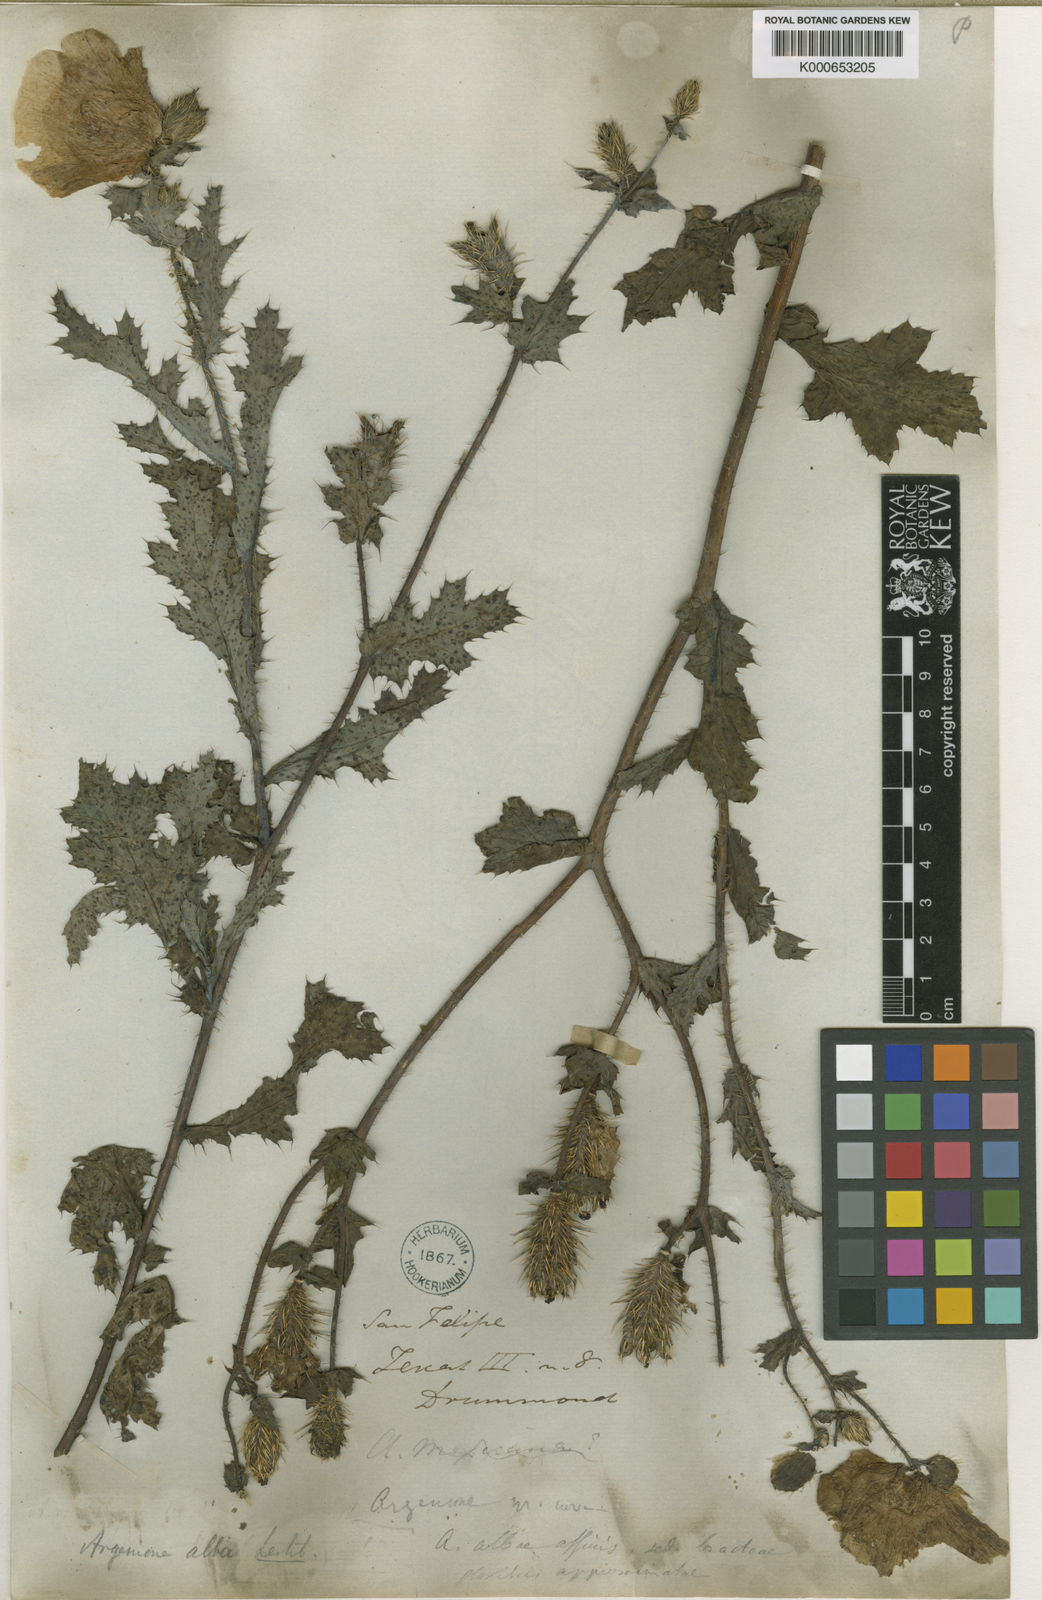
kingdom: Plantae
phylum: Tracheophyta
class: Magnoliopsida
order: Ranunculales
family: Papaveraceae
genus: Argemone
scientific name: Argemone
